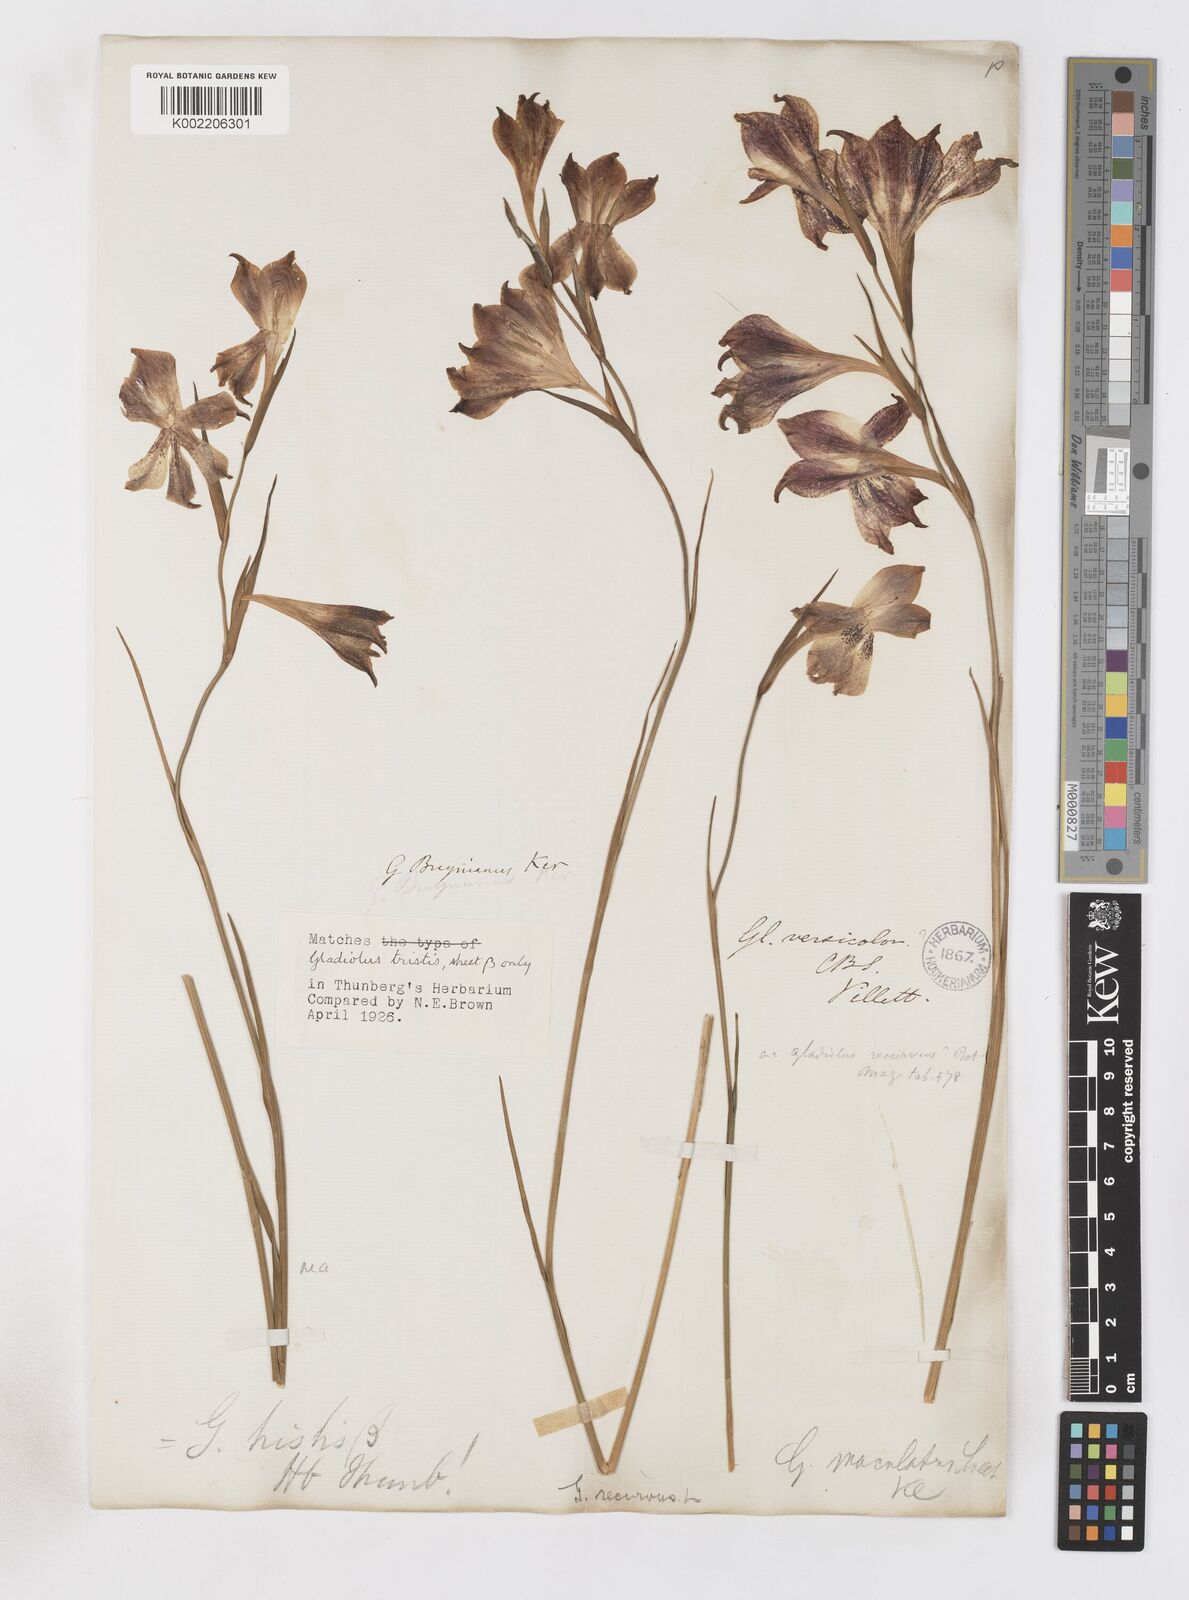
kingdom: Plantae
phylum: Tracheophyta
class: Liliopsida
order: Asparagales
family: Iridaceae
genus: Gladiolus
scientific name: Gladiolus maculatus
